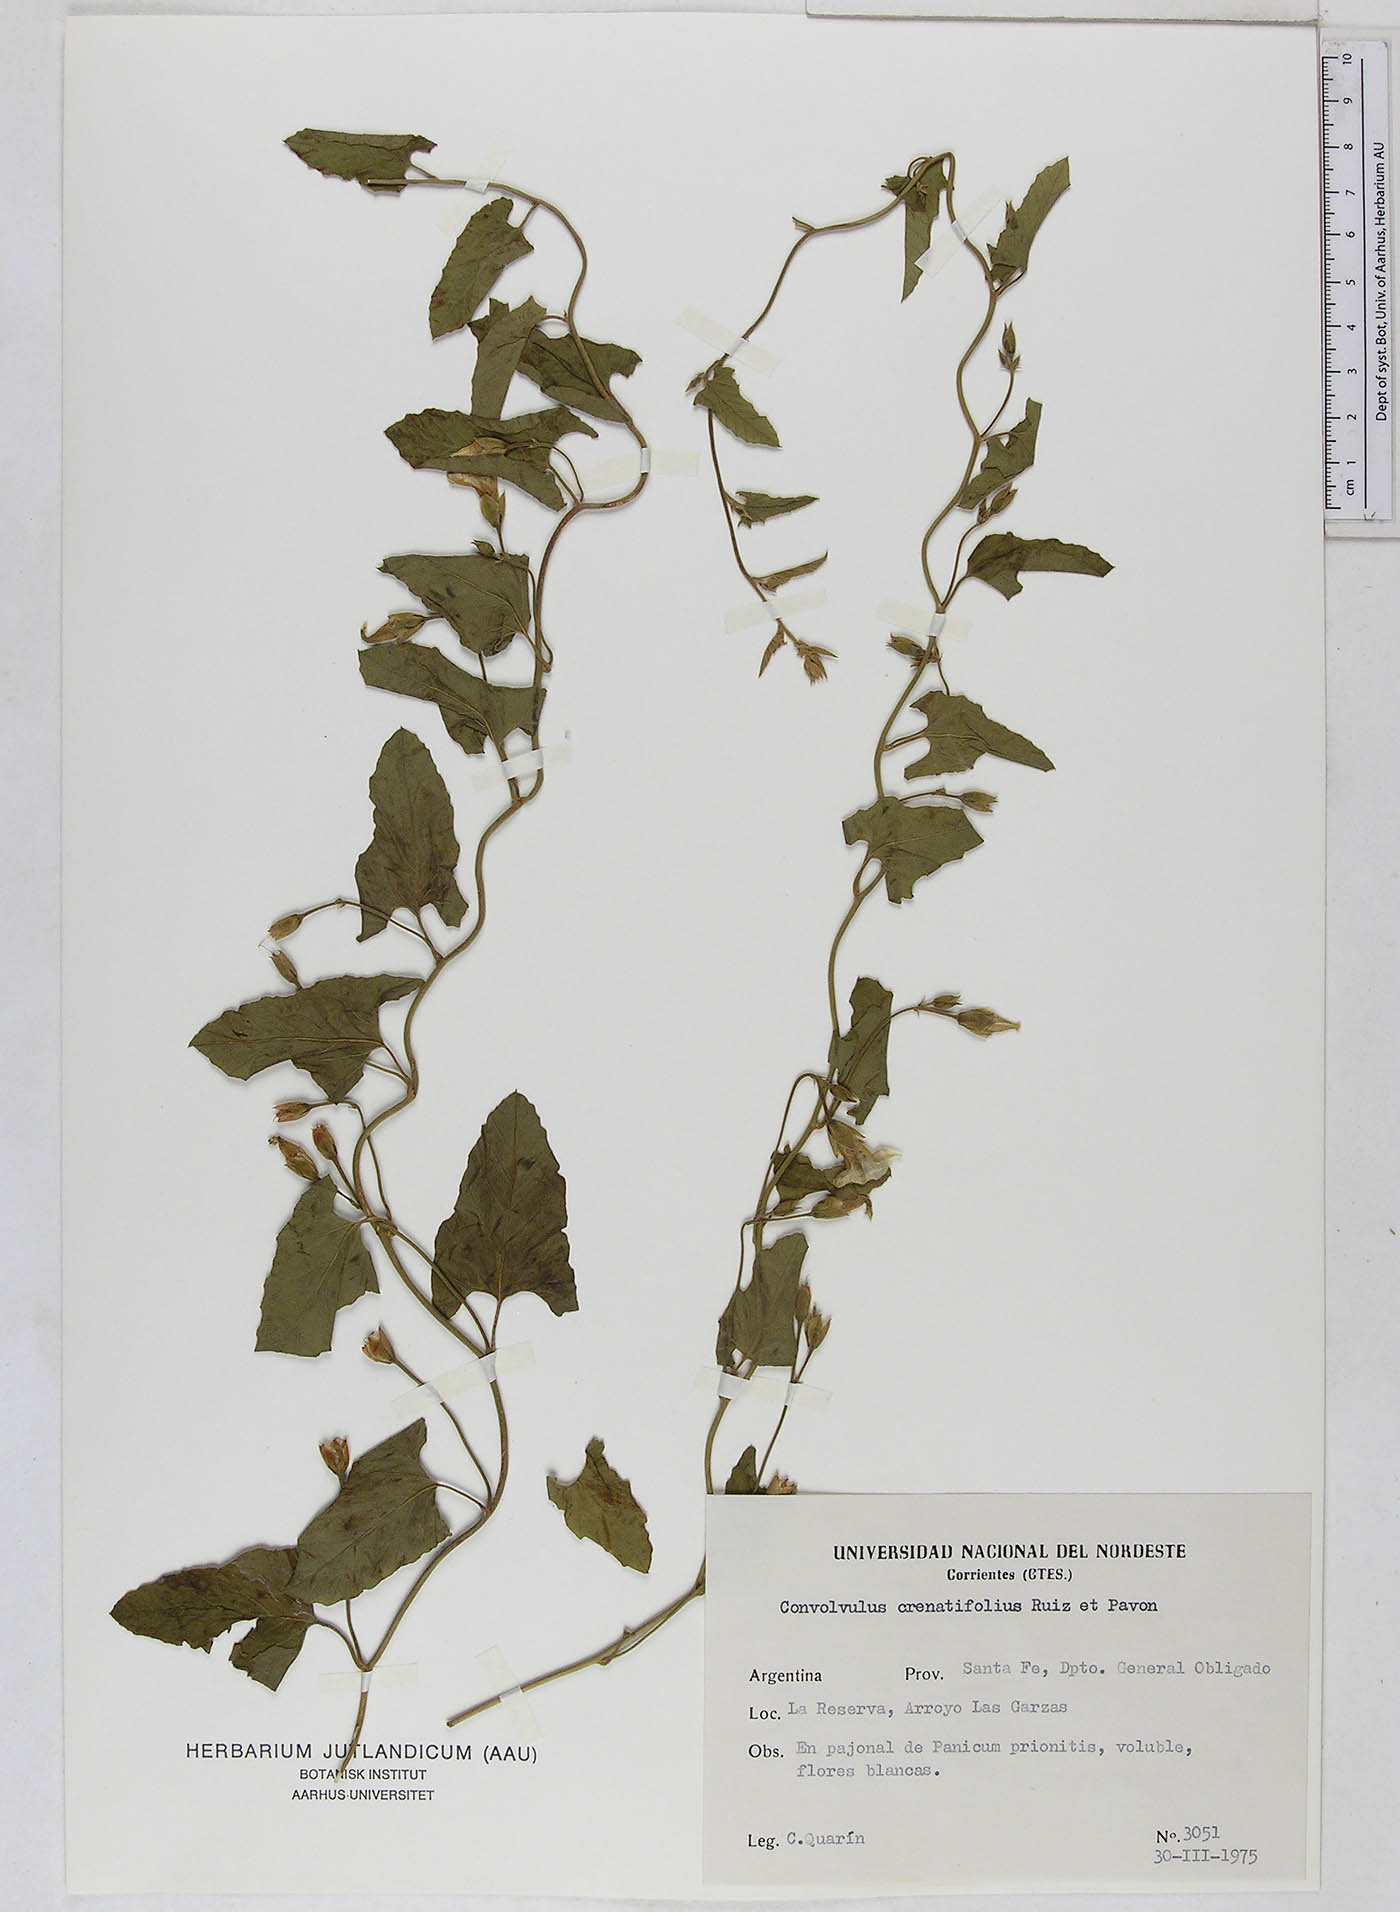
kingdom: Plantae
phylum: Tracheophyta
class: Magnoliopsida
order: Solanales
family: Convolvulaceae
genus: Convolvulus
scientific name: Convolvulus crenatifolius
